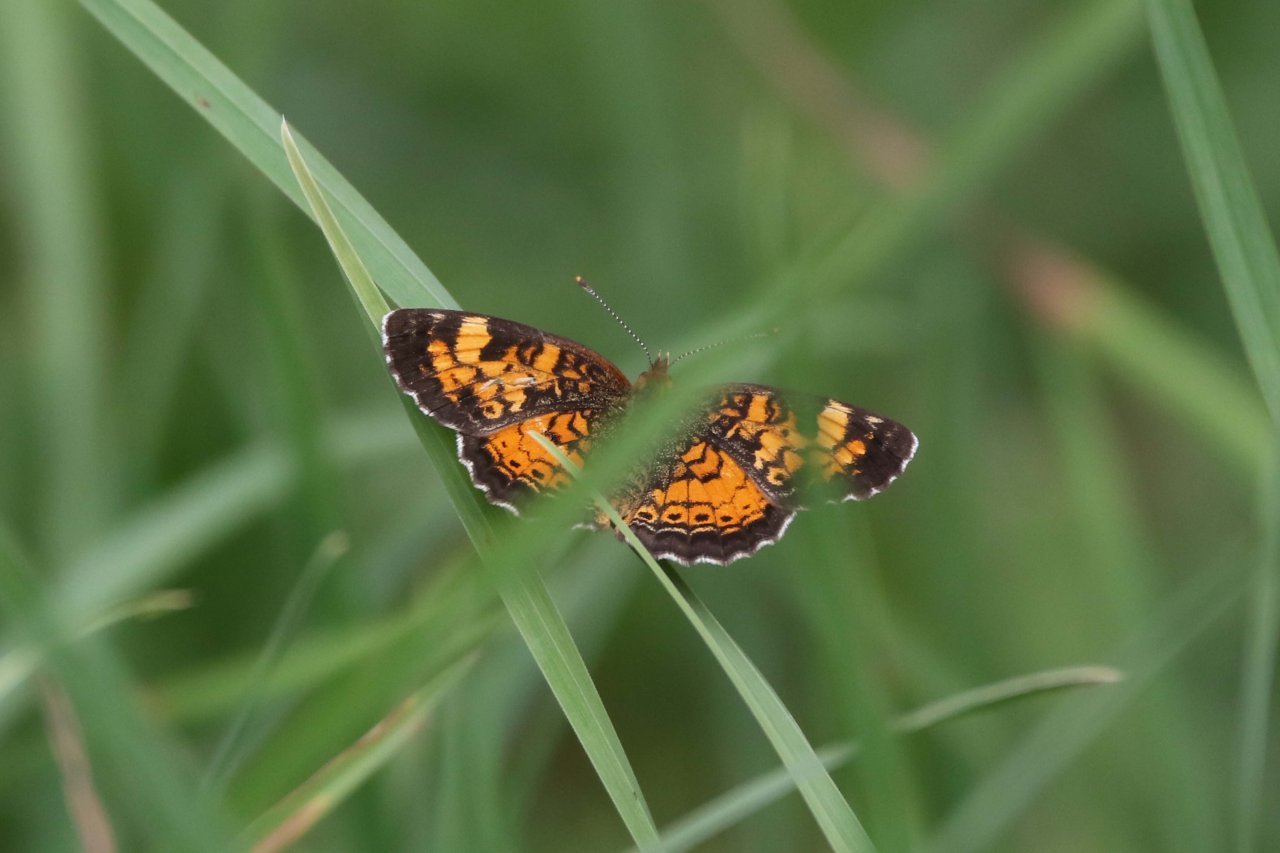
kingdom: Animalia
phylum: Arthropoda
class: Insecta
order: Lepidoptera
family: Nymphalidae
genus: Phyciodes
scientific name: Phyciodes tharos
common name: Northern Crescent
